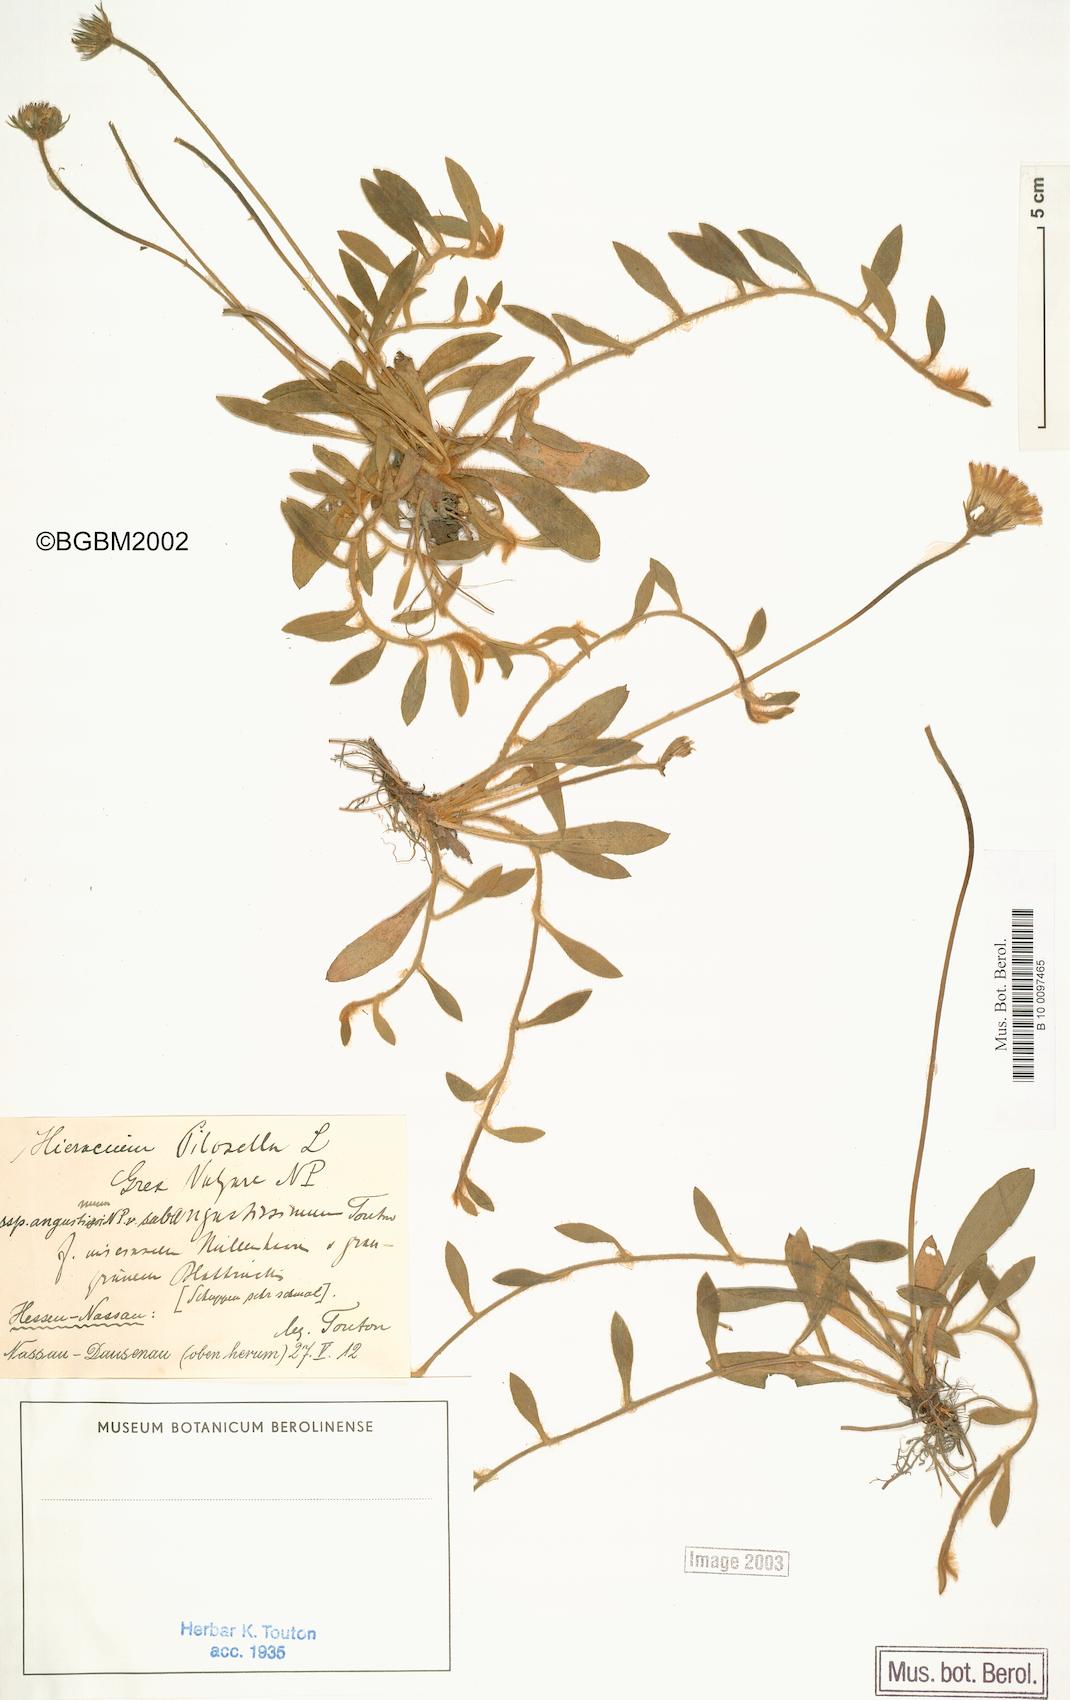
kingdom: Plantae
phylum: Tracheophyta
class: Magnoliopsida
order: Asterales
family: Asteraceae
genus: Pilosella
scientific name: Pilosella officinarum
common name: Mouse-ear hawkweed
